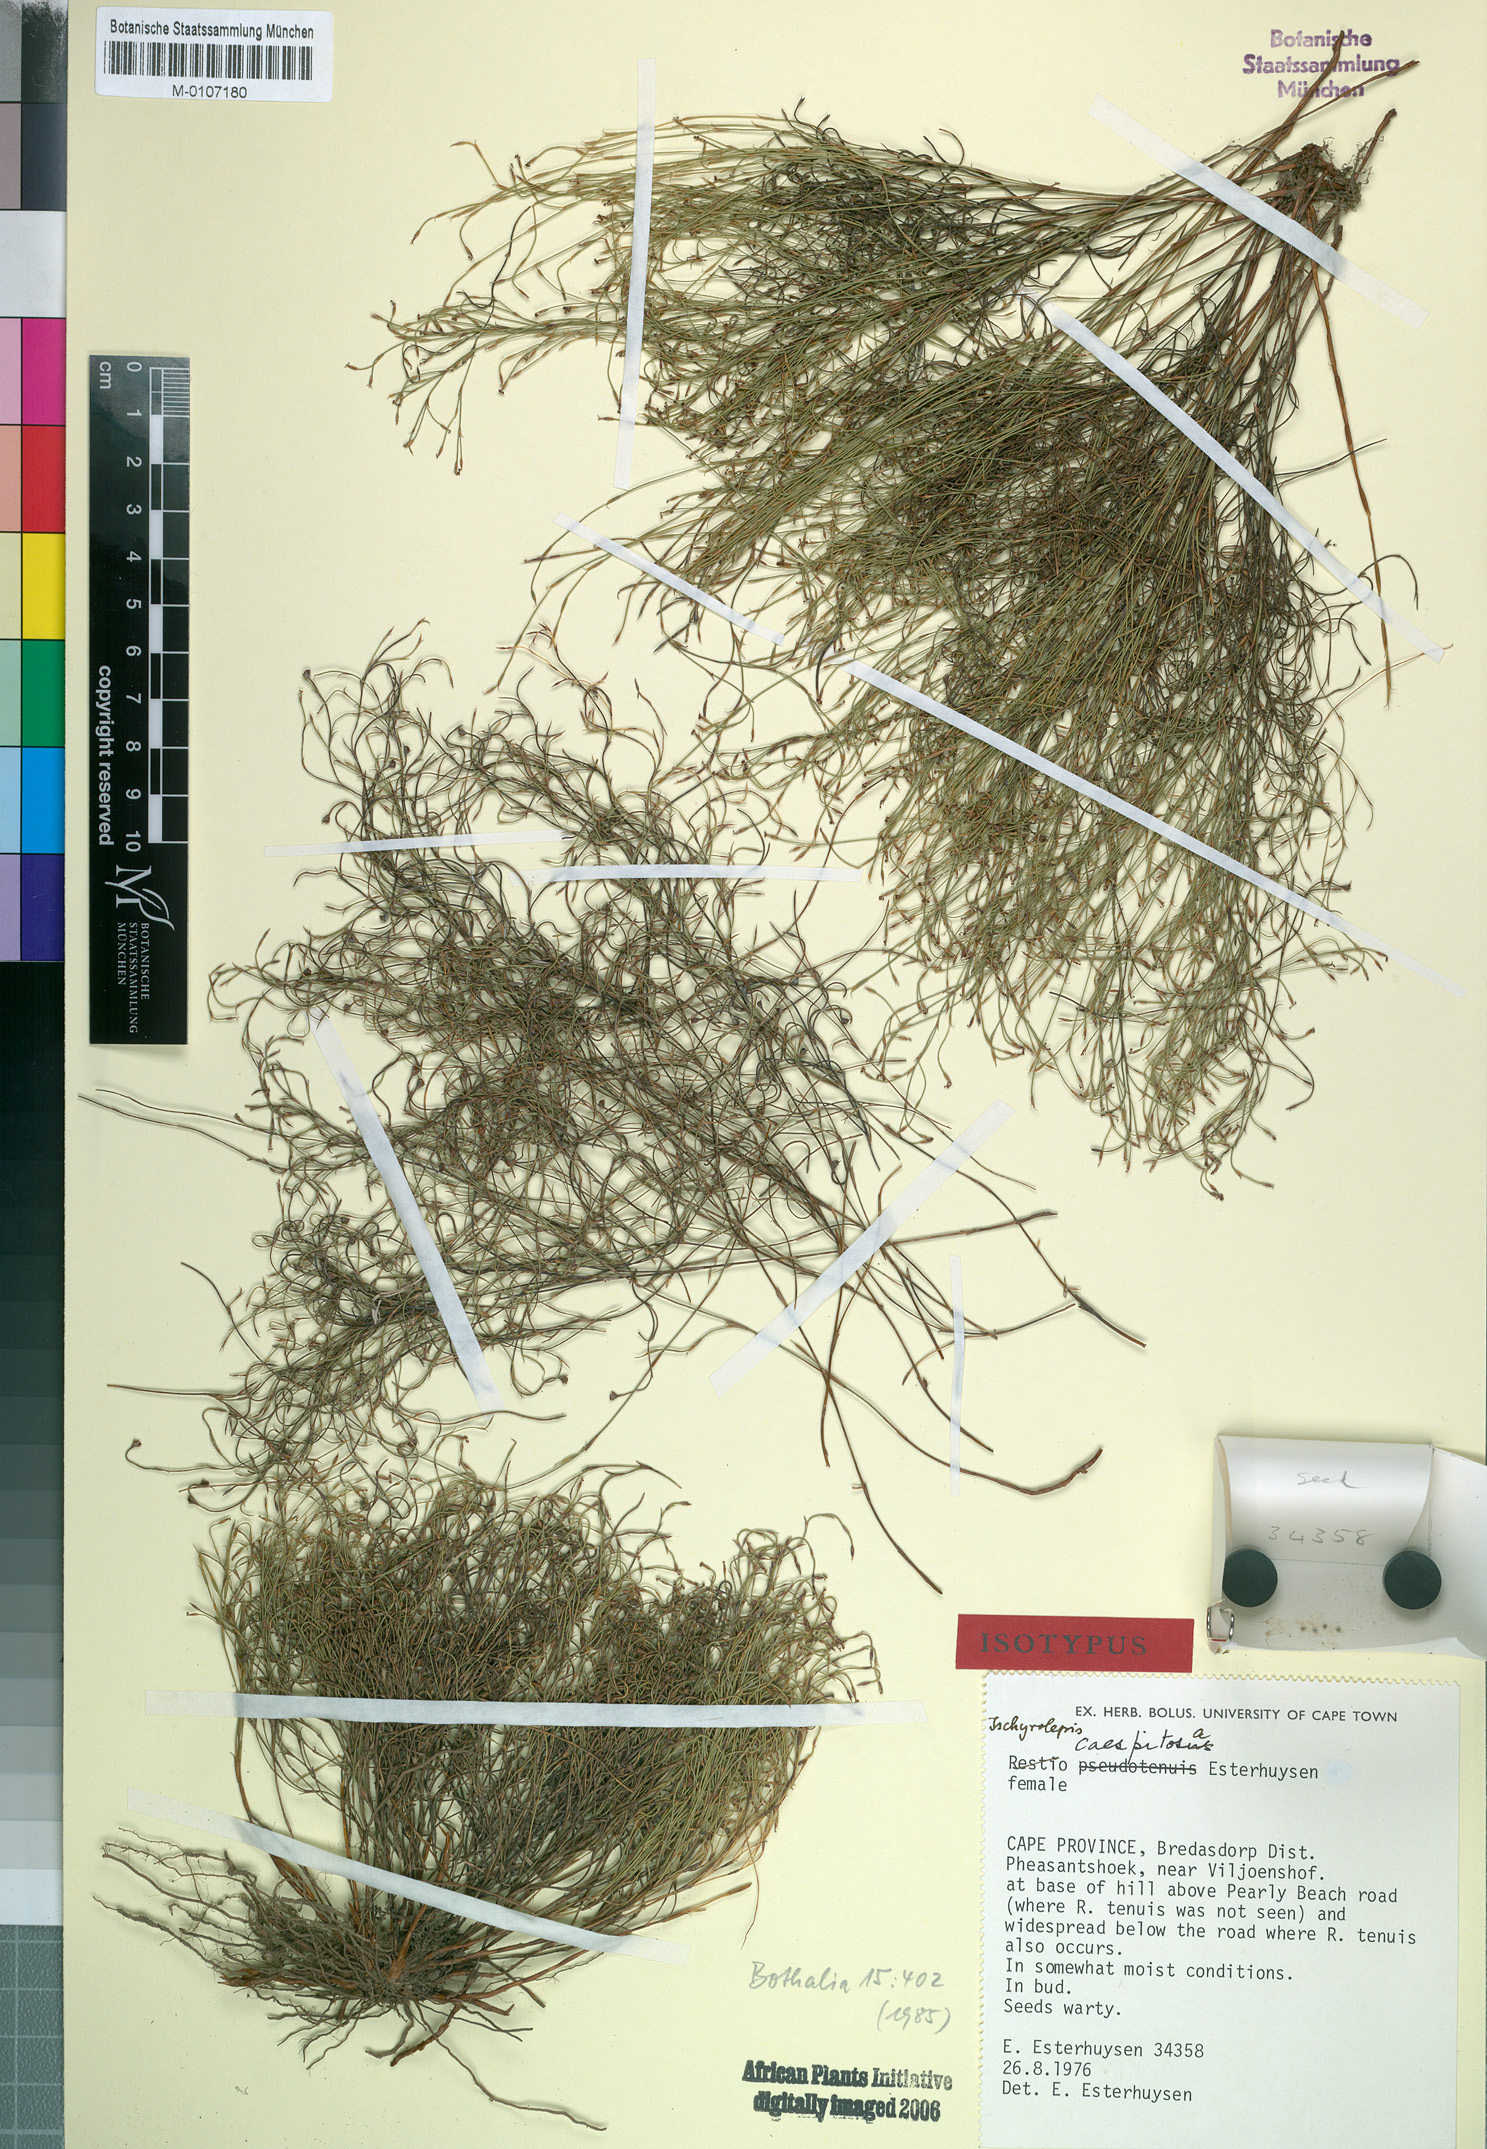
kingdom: Plantae
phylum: Tracheophyta
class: Liliopsida
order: Poales
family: Restionaceae
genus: Restio
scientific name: Restio caespitosus
